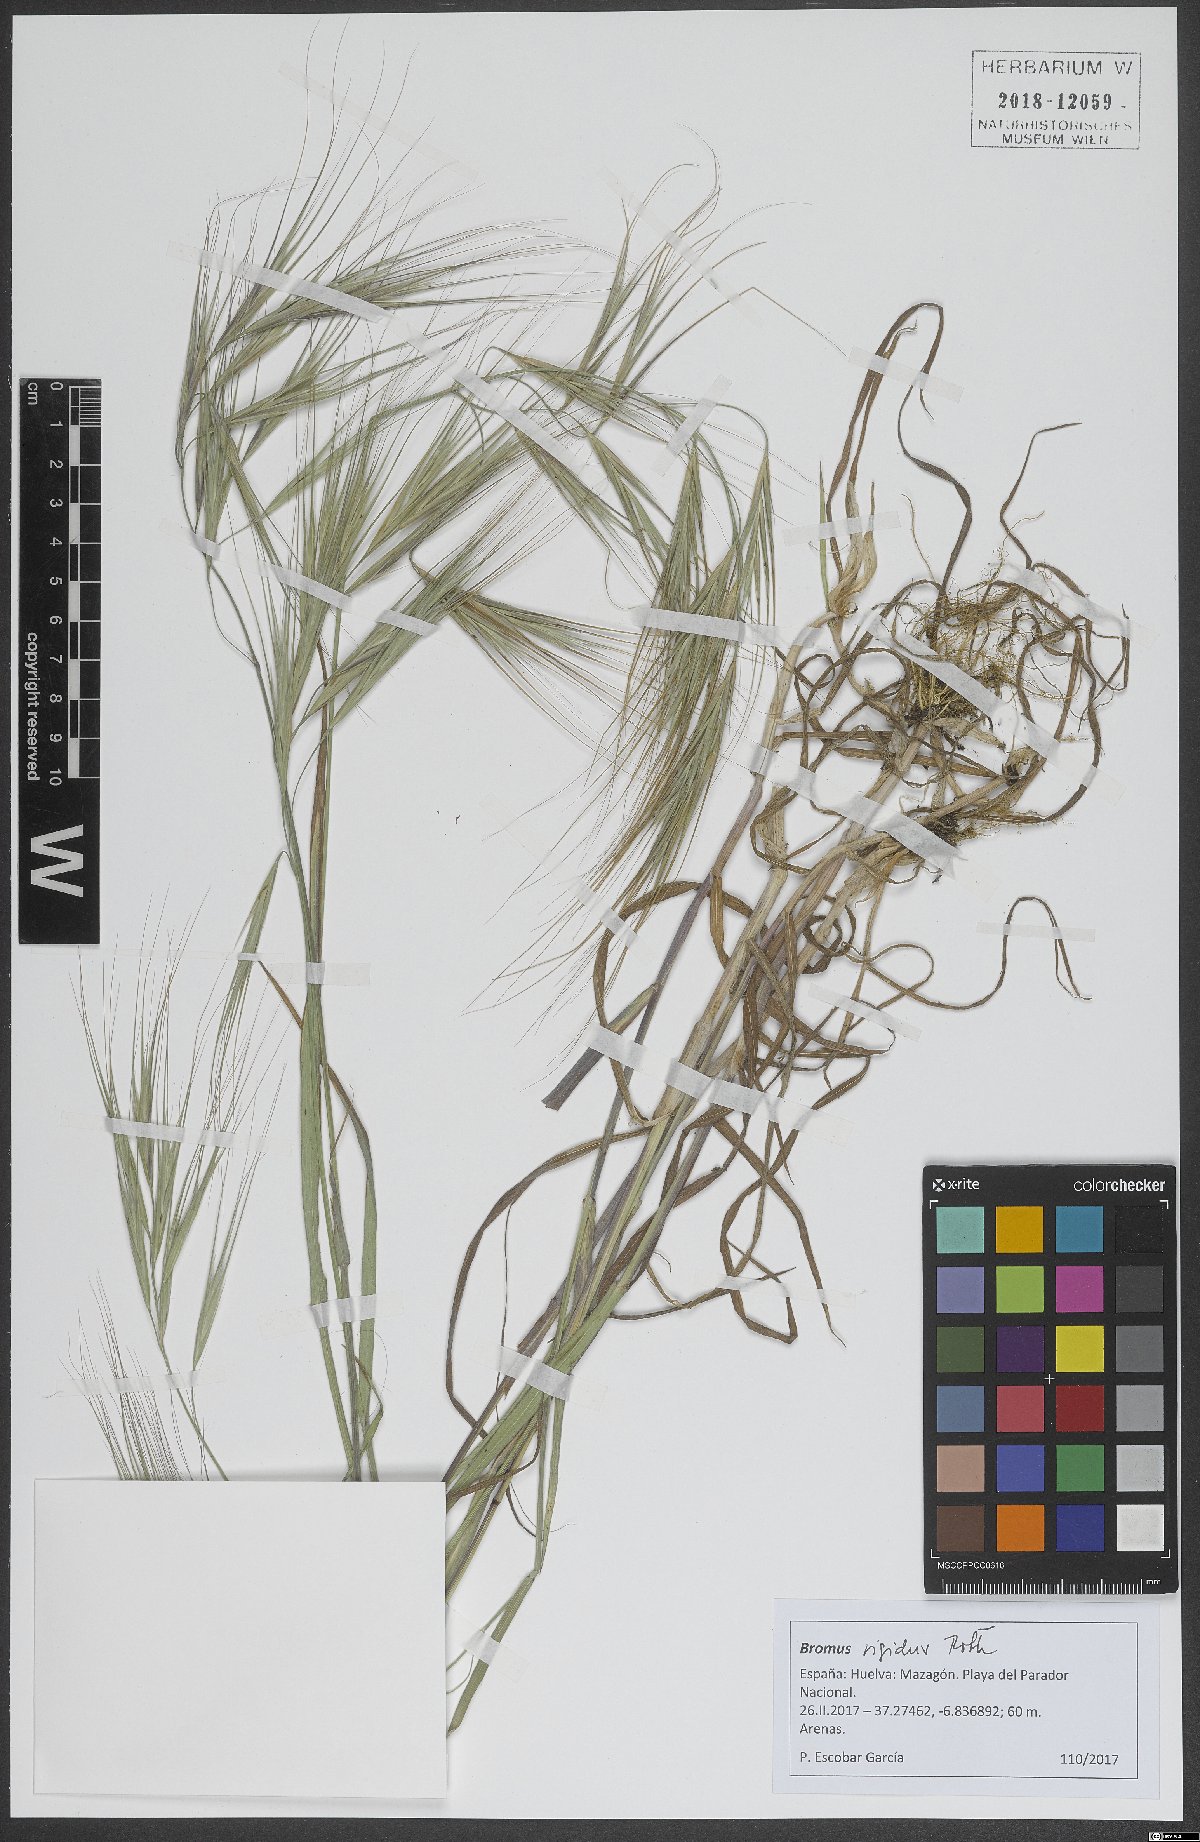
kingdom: Plantae
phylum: Tracheophyta
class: Liliopsida
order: Poales
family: Poaceae
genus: Bromus
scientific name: Bromus rigidus
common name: Ripgut brome
